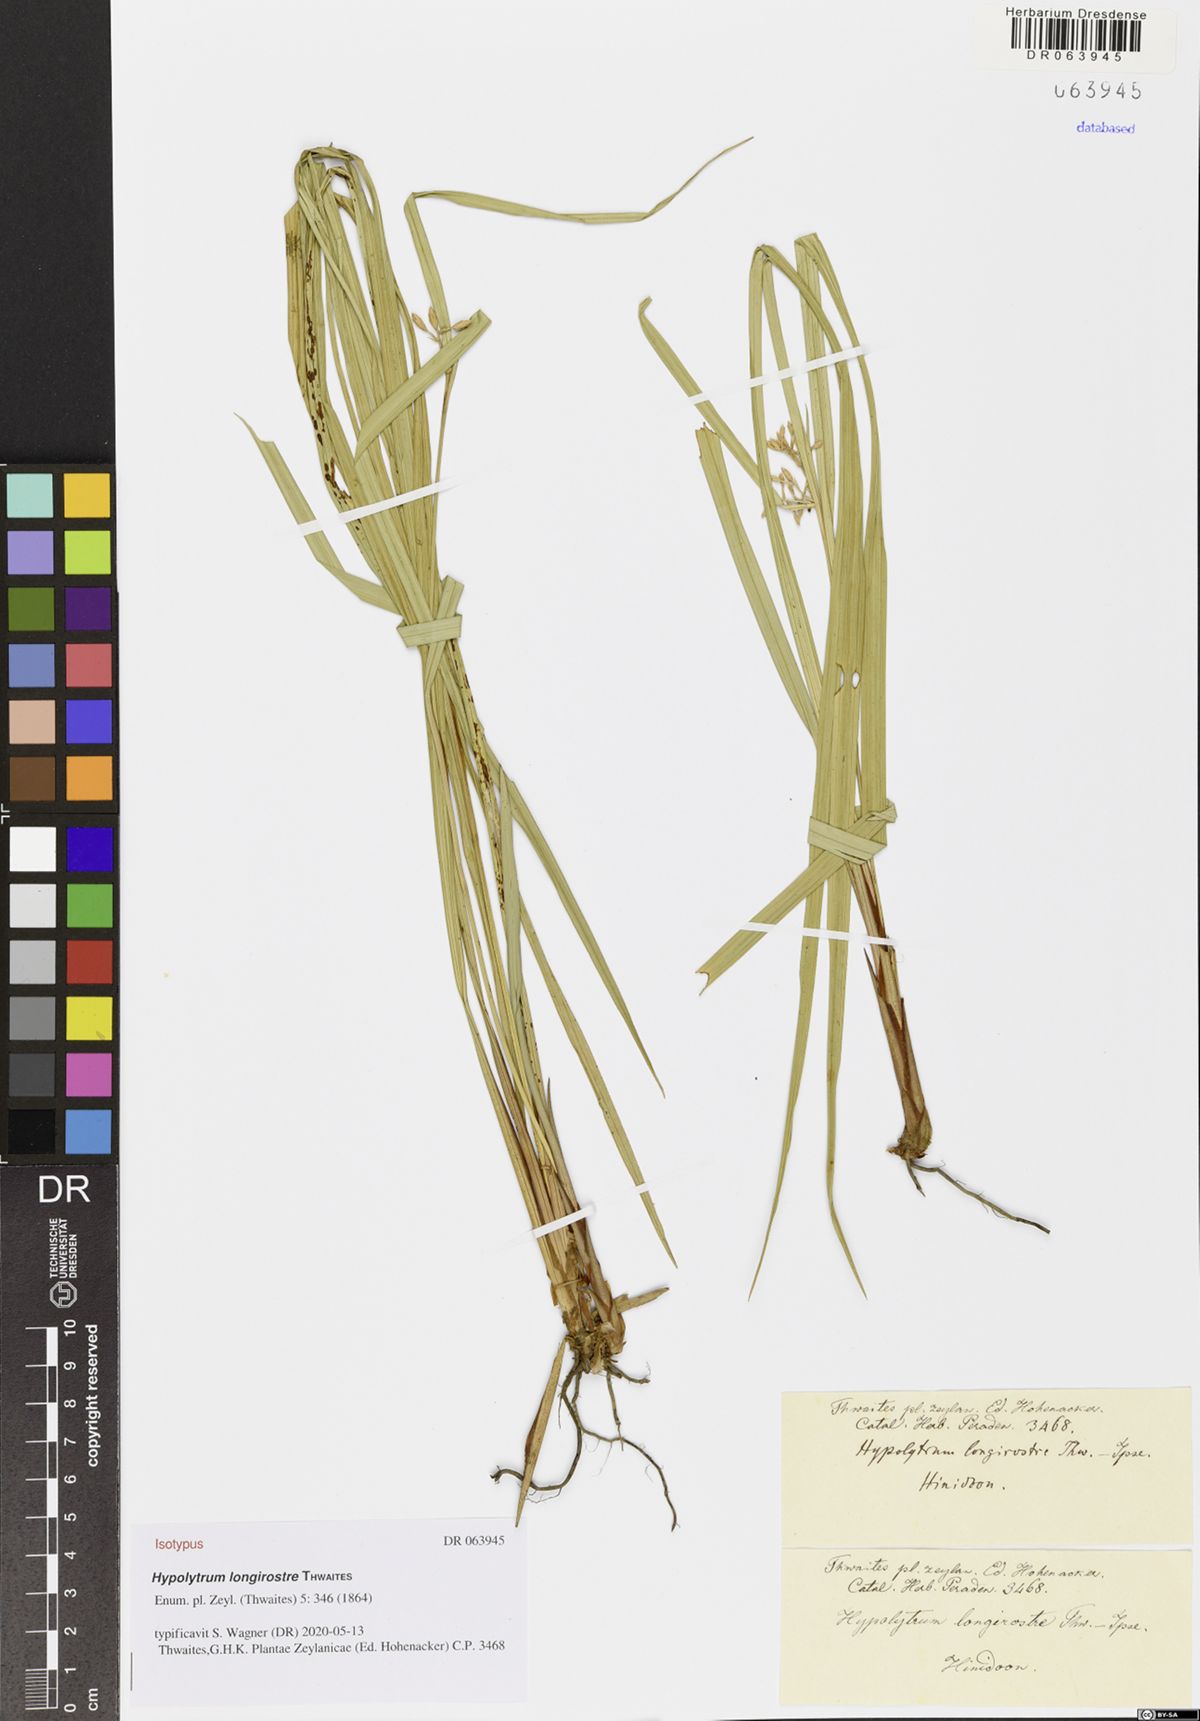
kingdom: Plantae
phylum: Tracheophyta
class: Liliopsida
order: Poales
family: Cyperaceae
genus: Hypolytrum
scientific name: Hypolytrum longirostre
